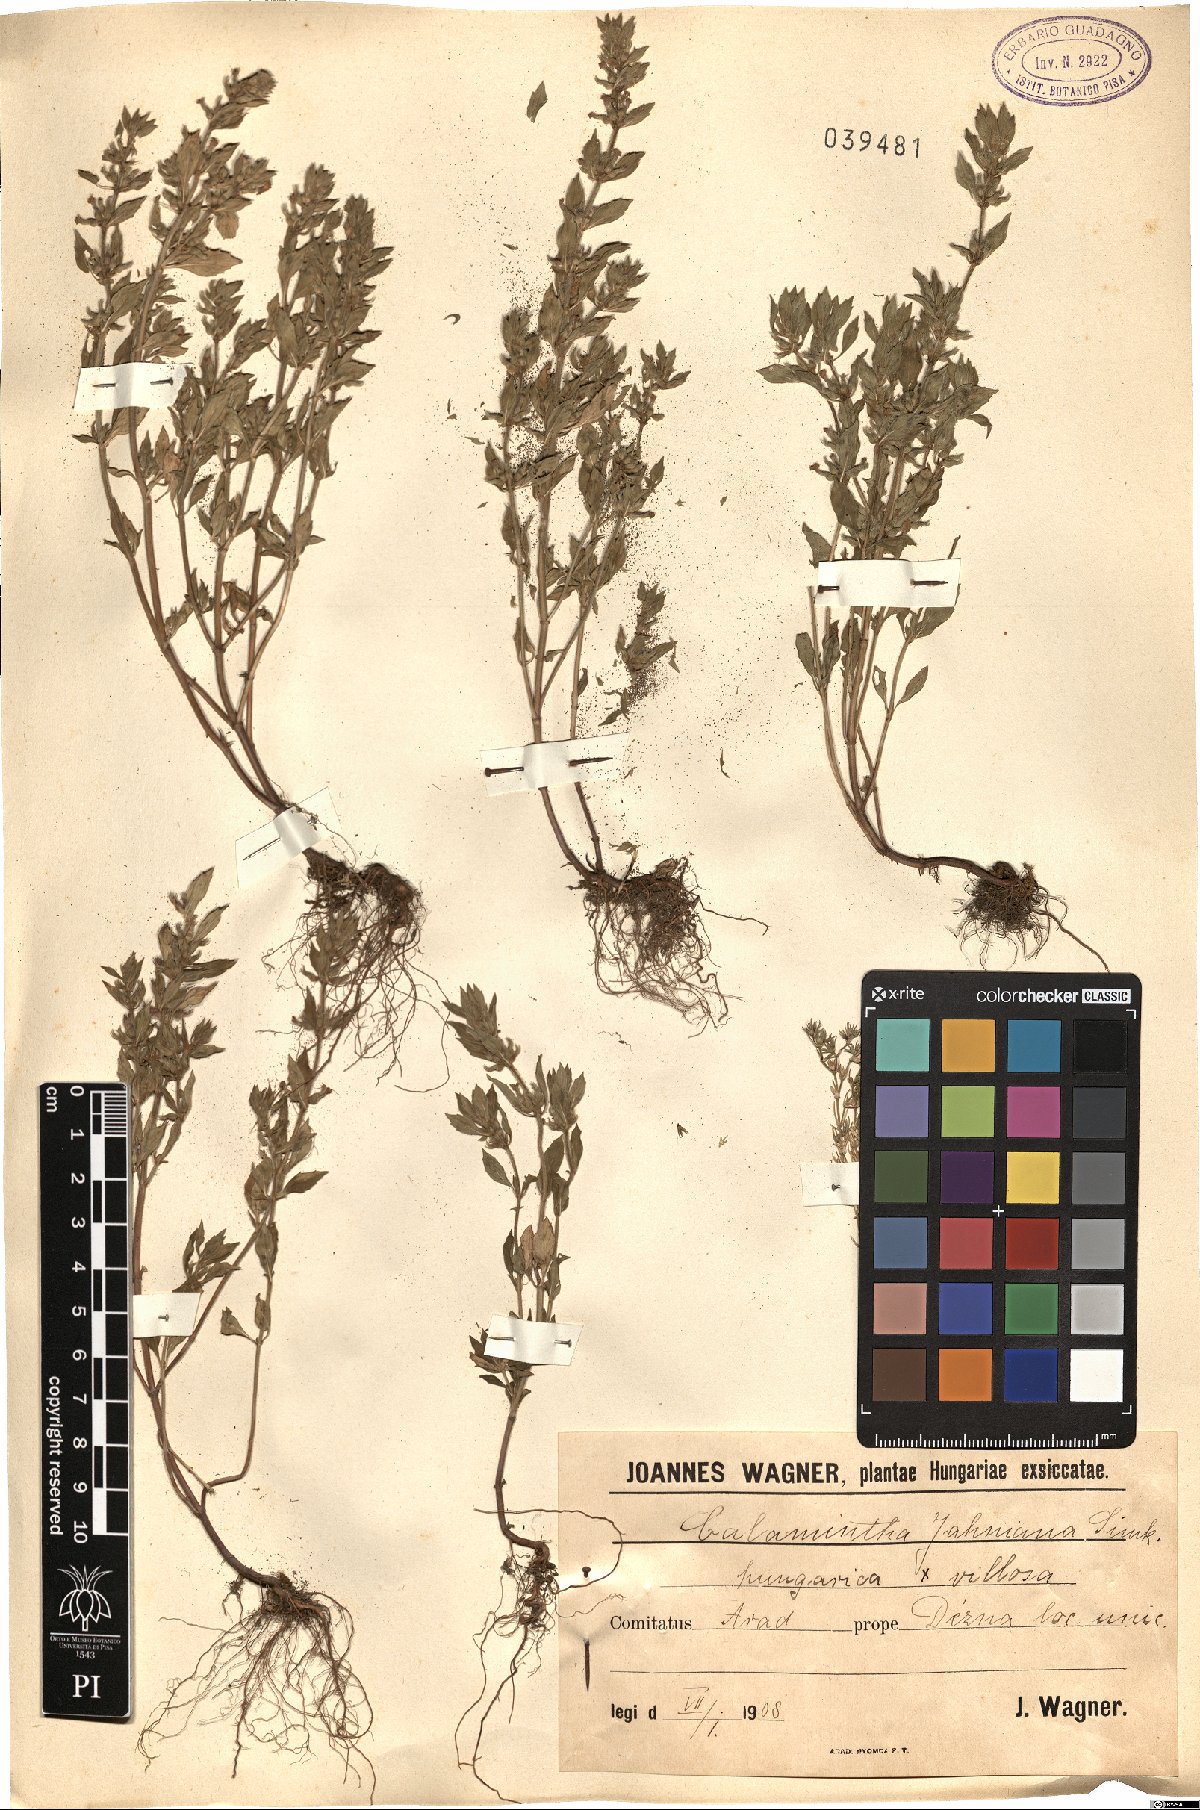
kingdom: Plantae
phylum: Tracheophyta
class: Magnoliopsida
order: Lamiales
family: Lamiaceae
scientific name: Lamiaceae
